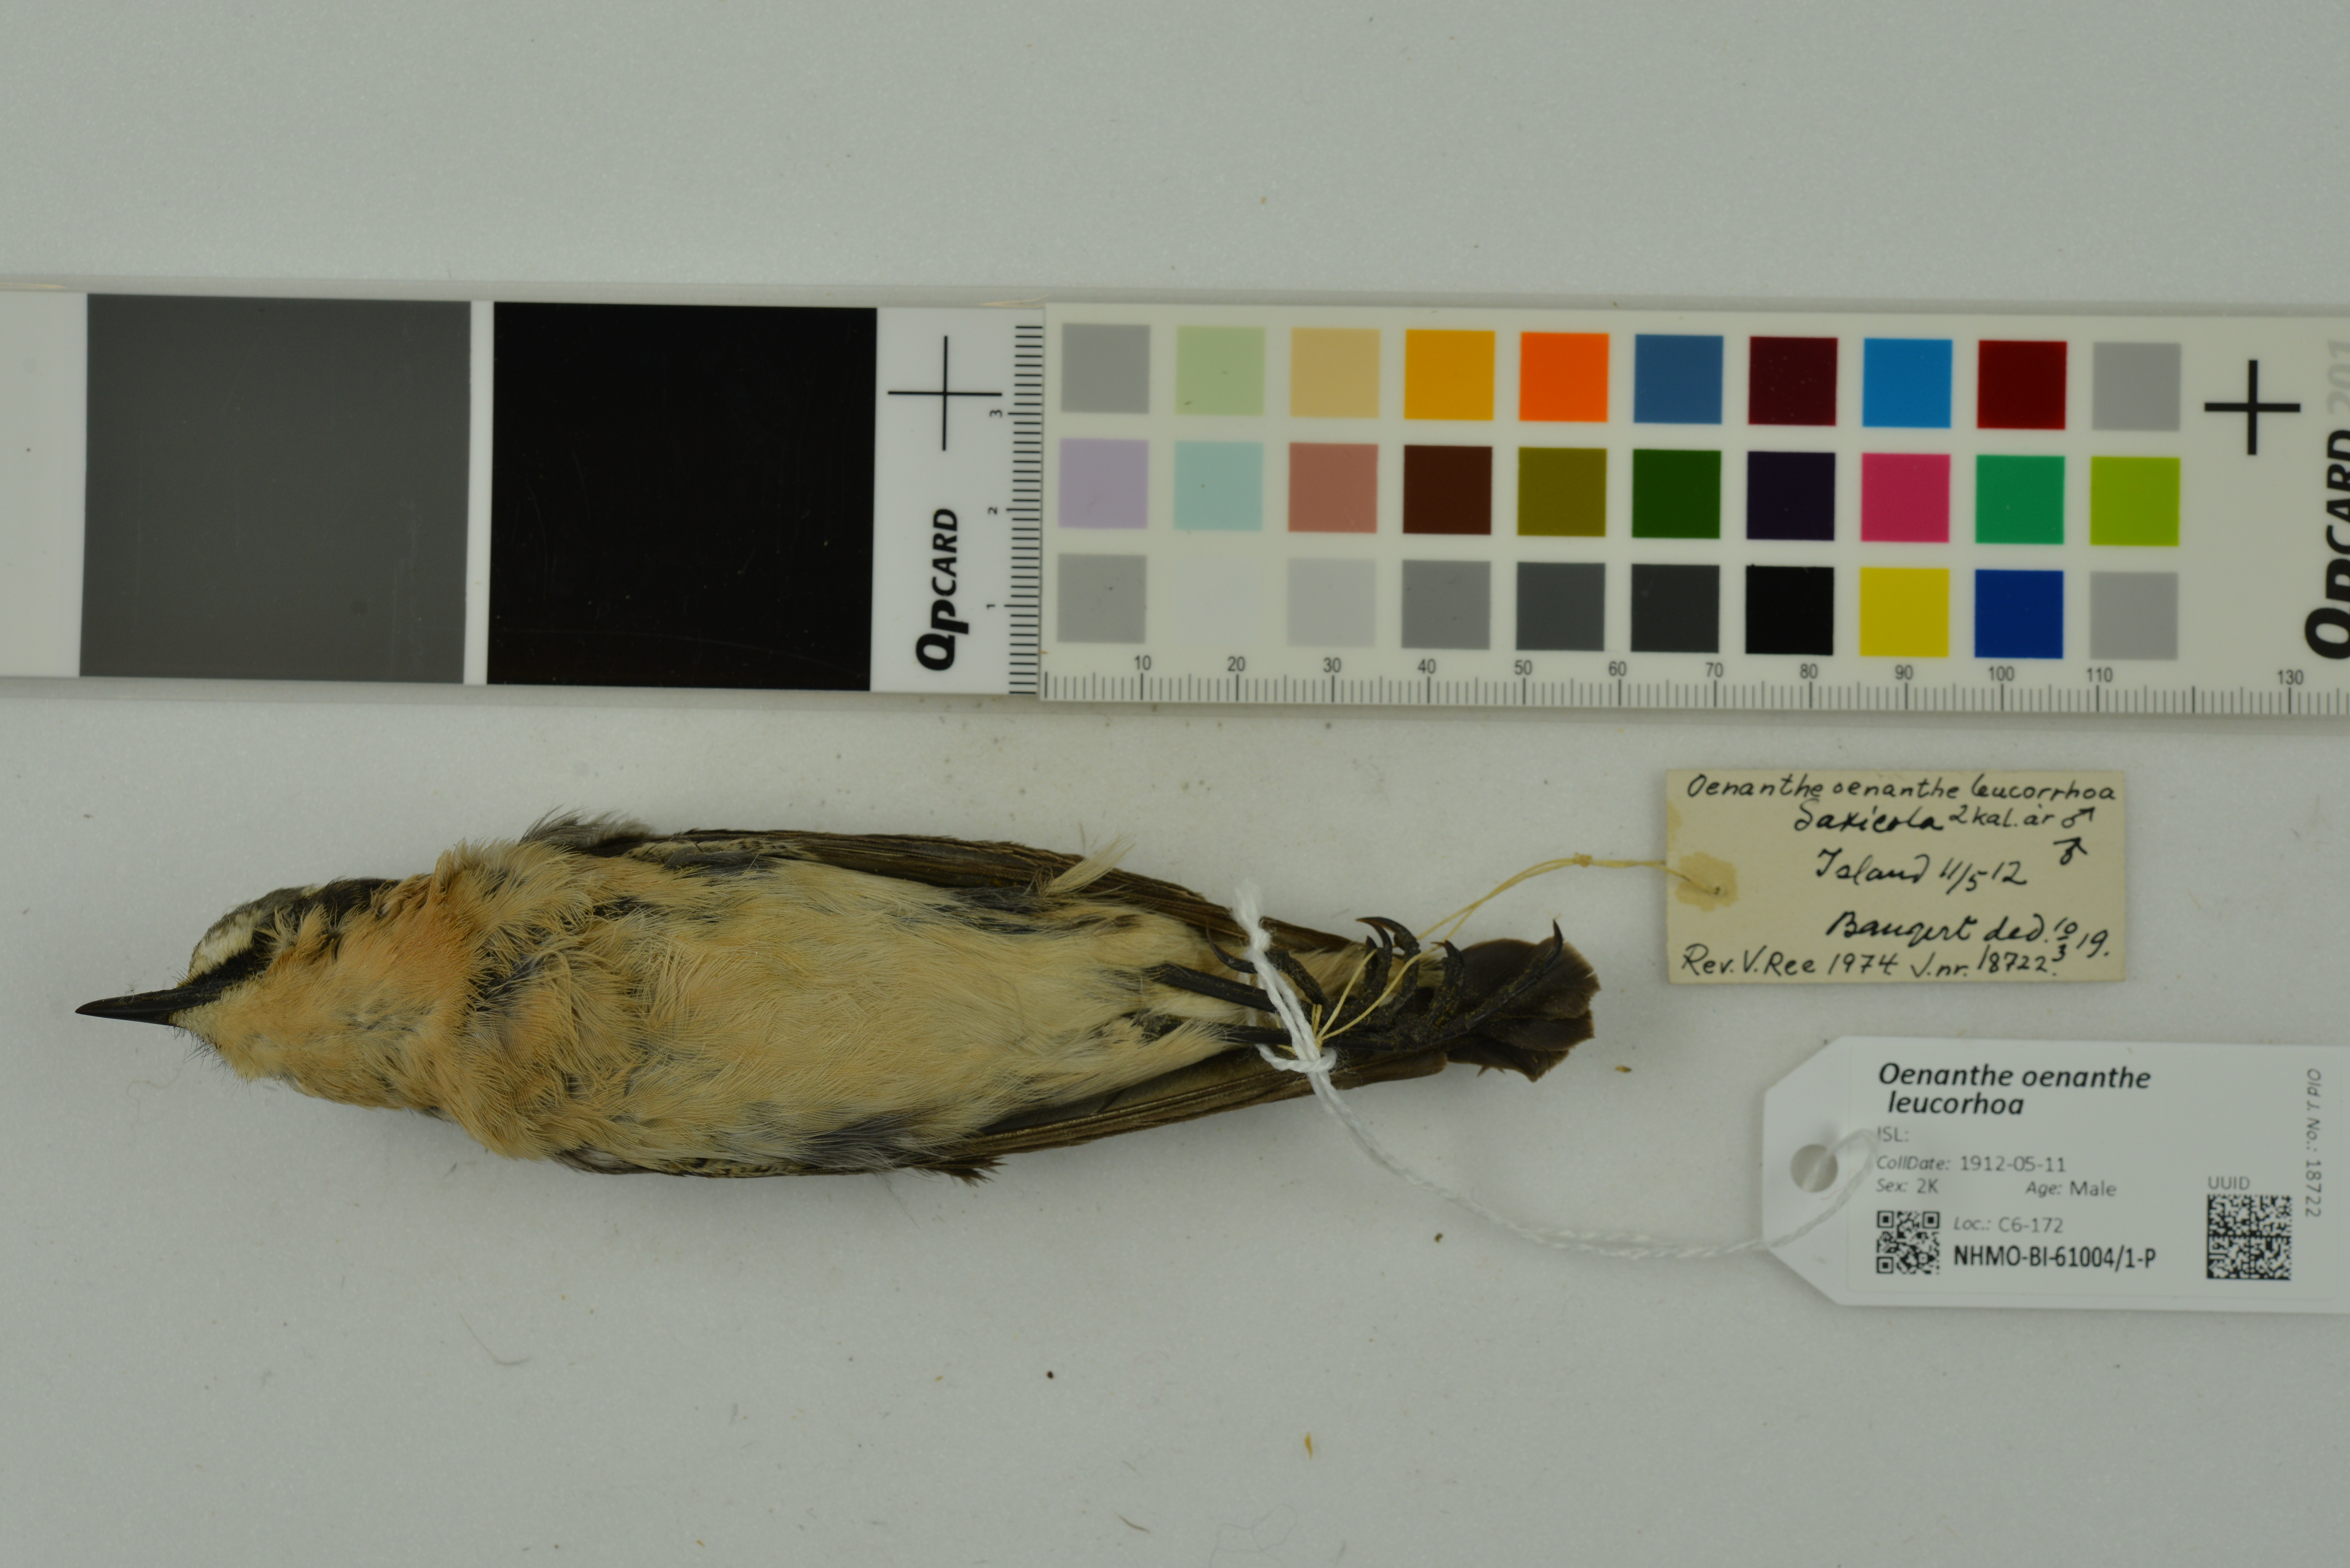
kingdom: Animalia
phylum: Chordata
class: Aves
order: Passeriformes
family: Muscicapidae
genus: Oenanthe
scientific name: Oenanthe oenanthe
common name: Northern wheatear
